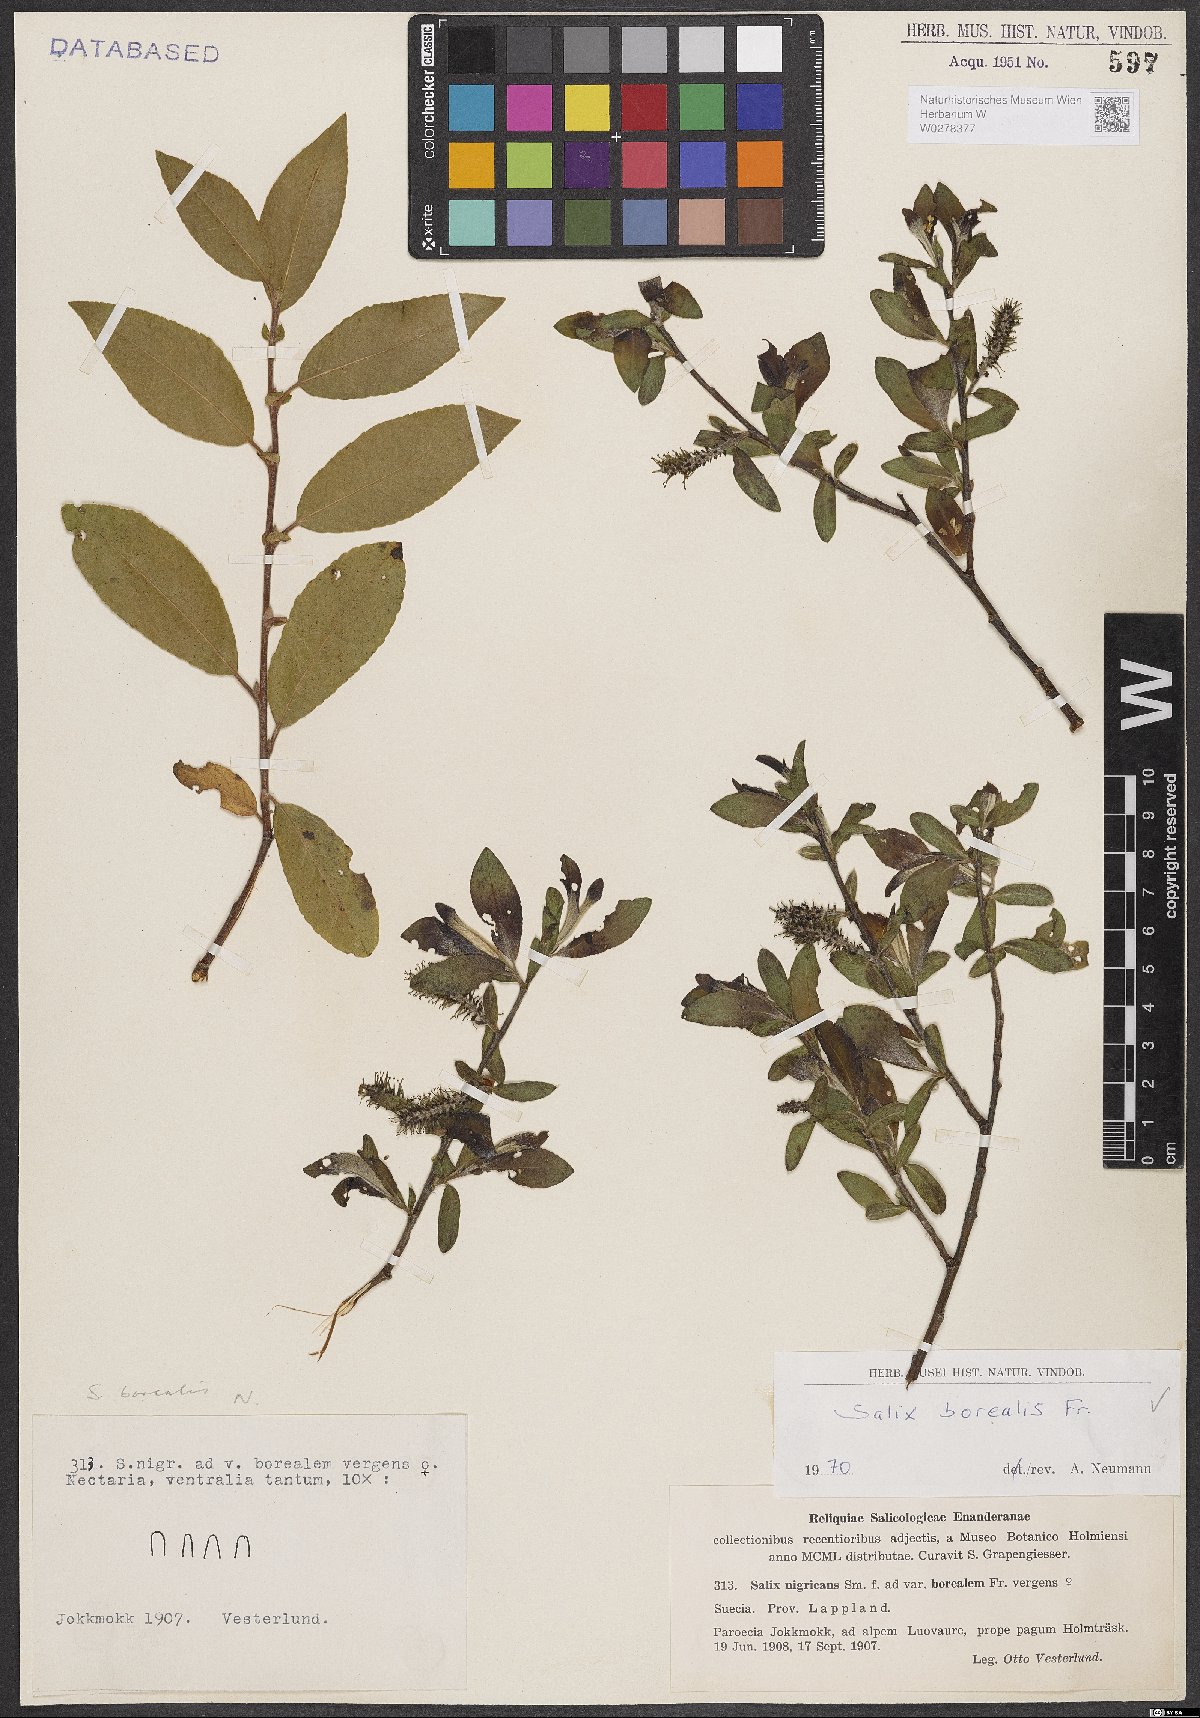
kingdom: Plantae
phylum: Tracheophyta
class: Magnoliopsida
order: Malpighiales
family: Salicaceae
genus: Salix
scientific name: Salix myrsinifolia
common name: Dark-leaved willow
